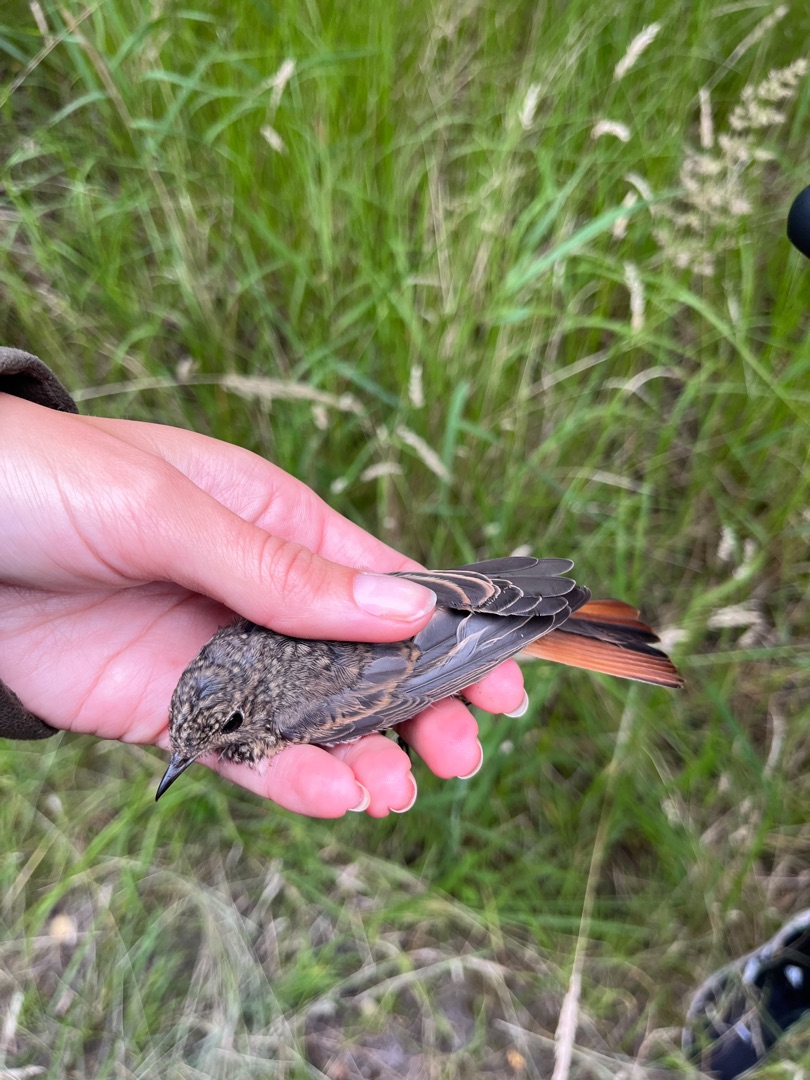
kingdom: Animalia
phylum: Chordata
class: Aves
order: Passeriformes
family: Muscicapidae
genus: Phoenicurus
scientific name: Phoenicurus phoenicurus
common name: Rødstjert
